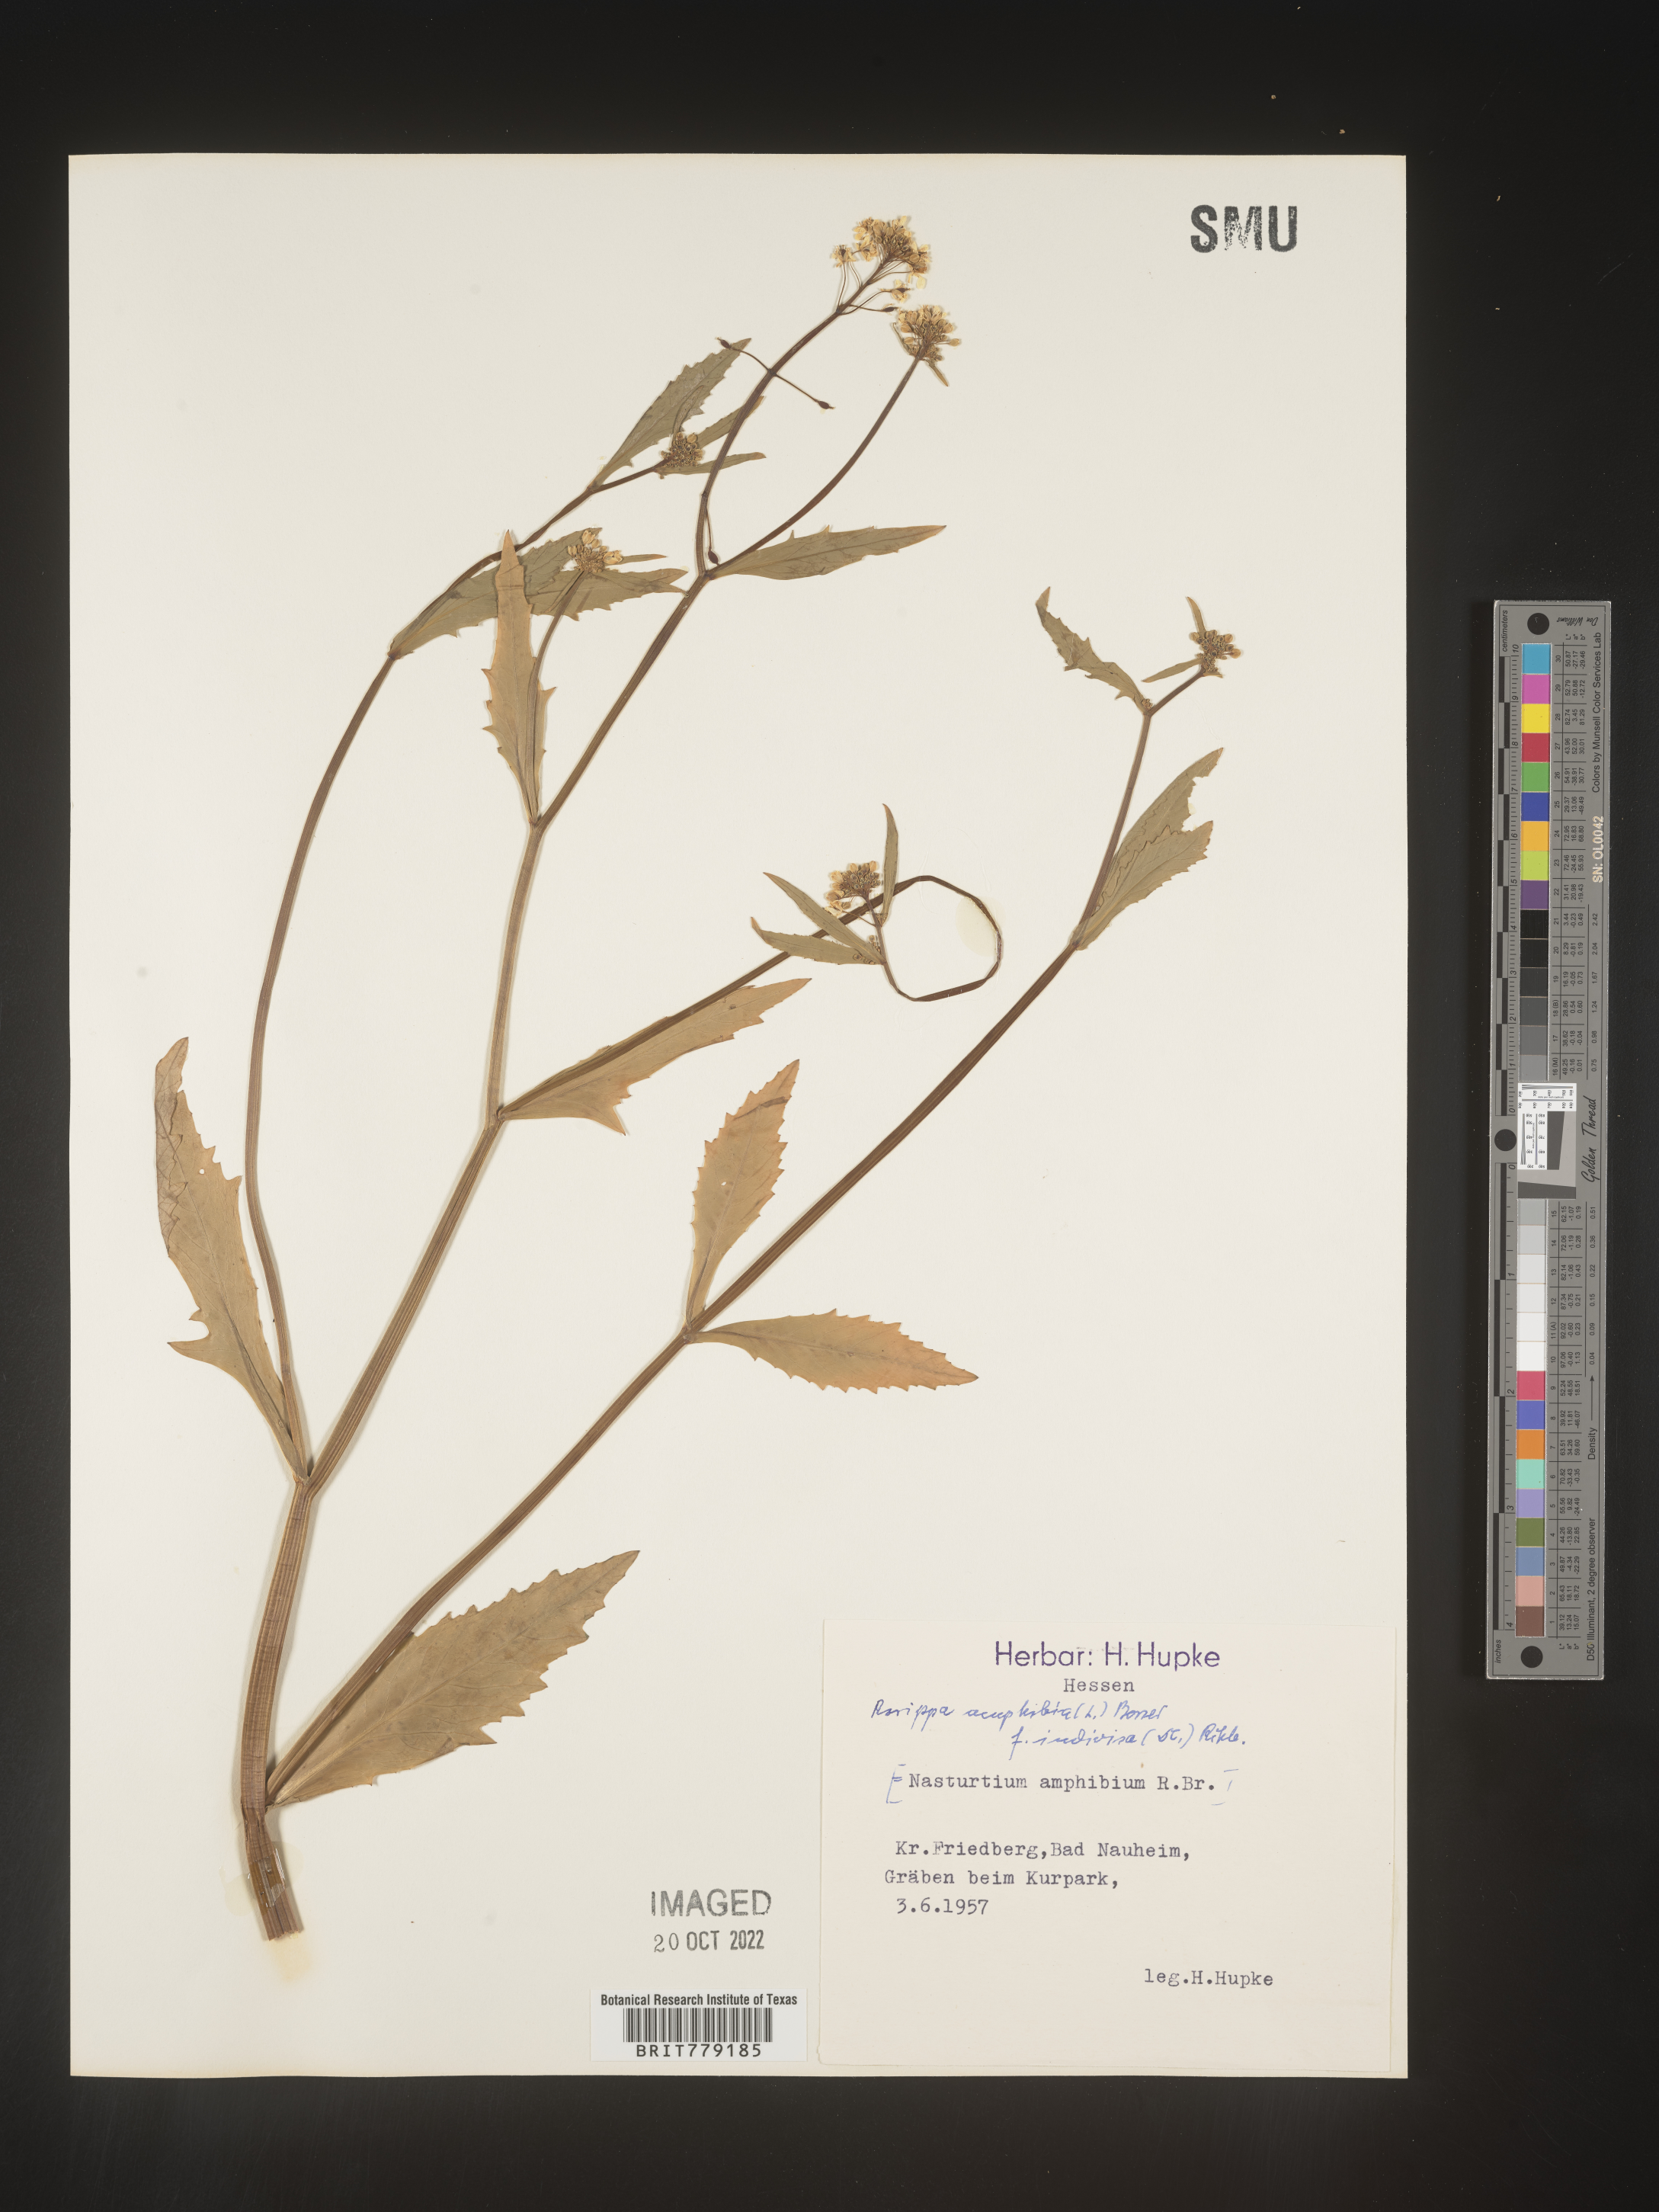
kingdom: Plantae
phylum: Tracheophyta
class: Magnoliopsida
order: Brassicales
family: Brassicaceae
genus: Rorippa
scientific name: Rorippa
